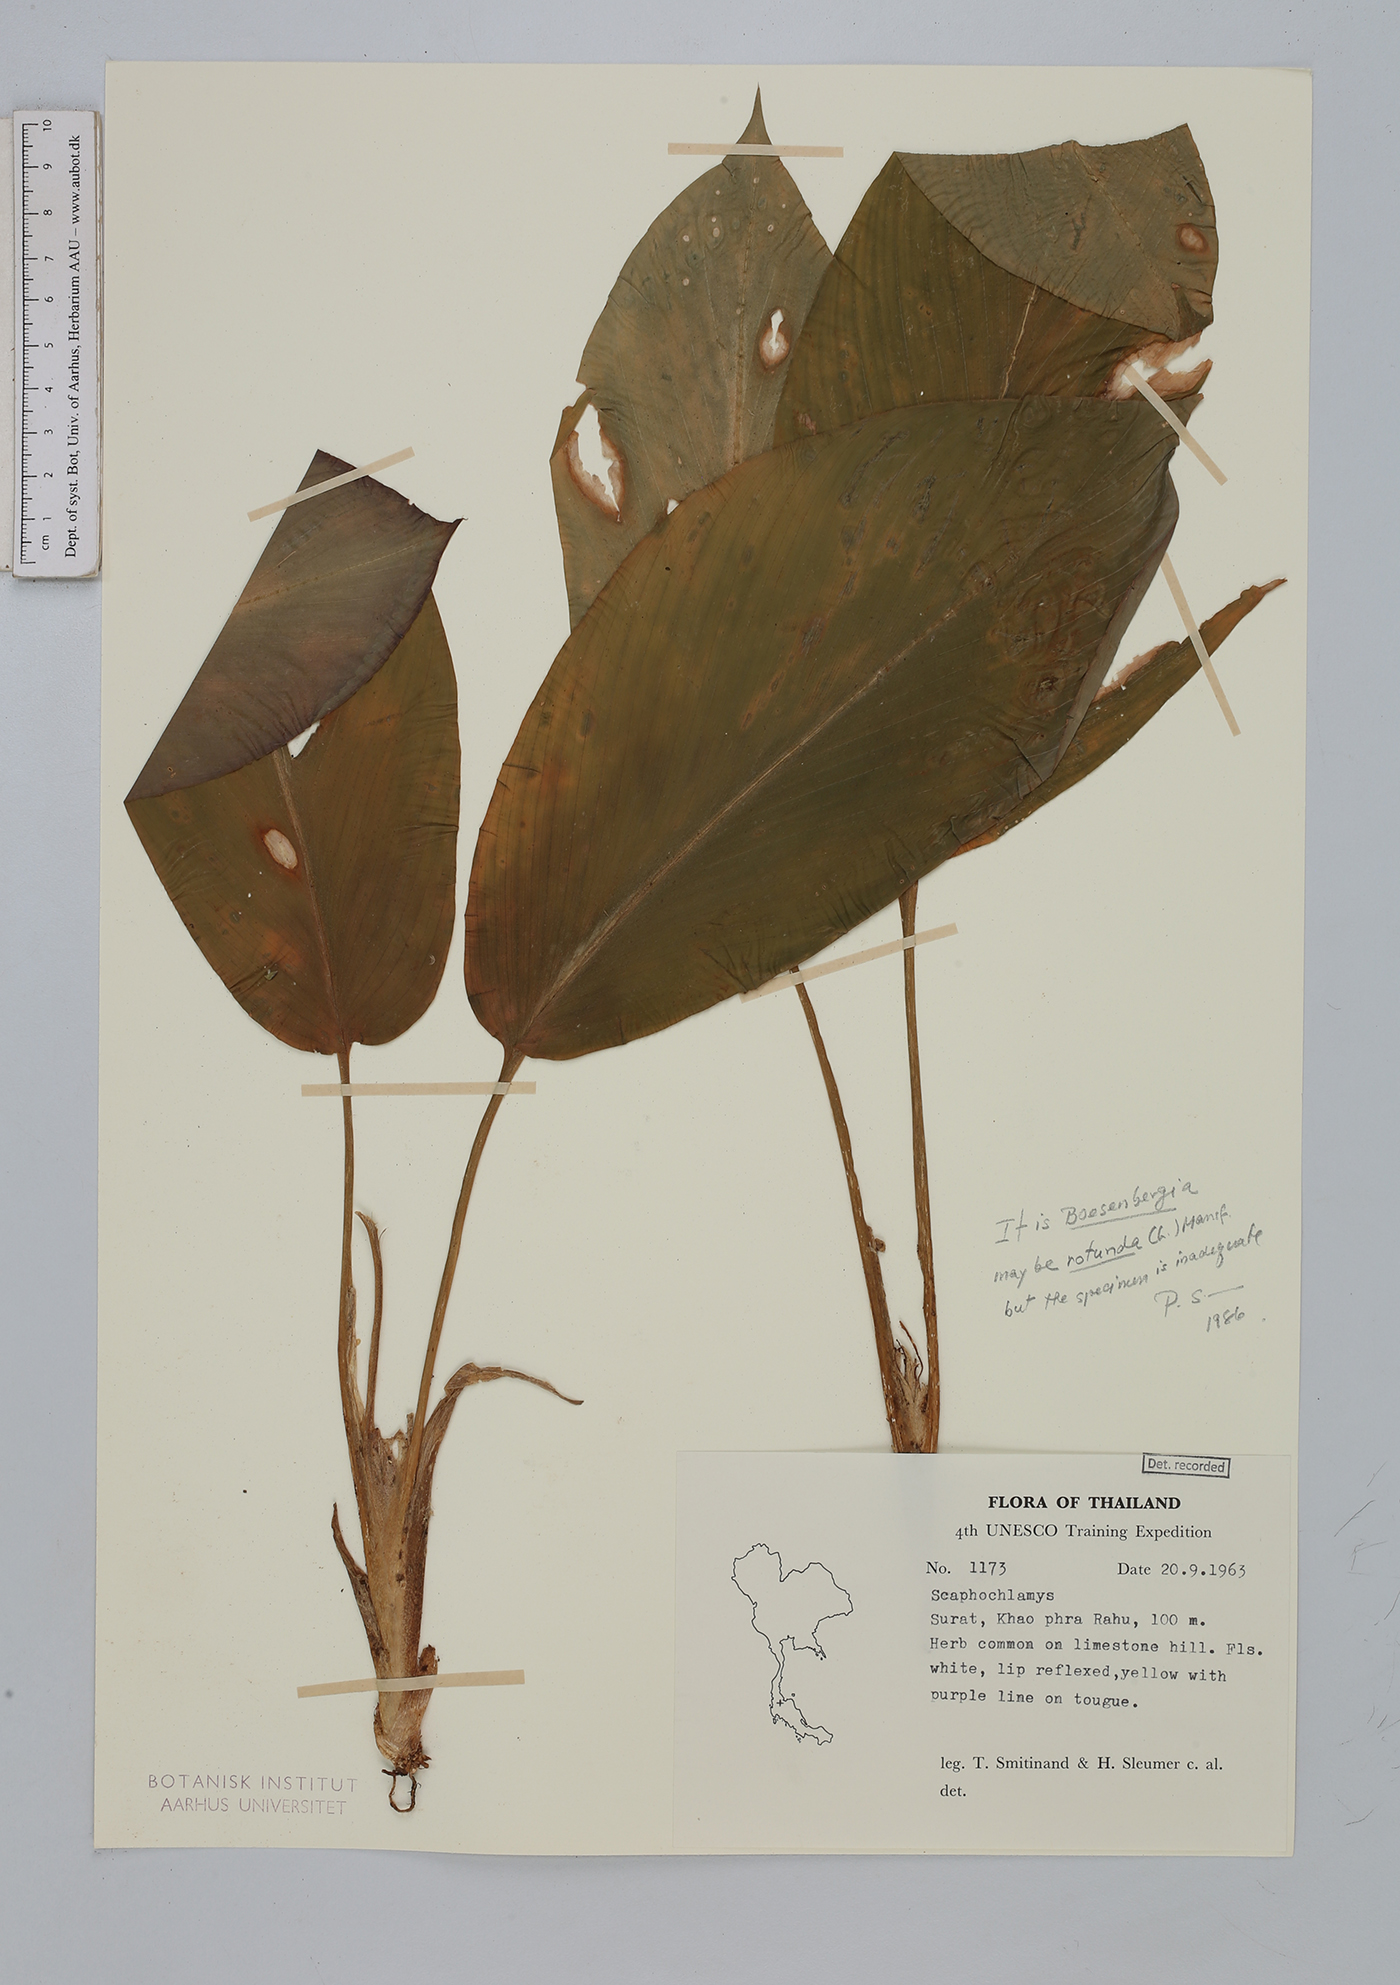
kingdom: Plantae
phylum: Tracheophyta
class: Liliopsida
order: Zingiberales
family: Zingiberaceae
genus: Boesenbergia
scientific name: Boesenbergia rotunda
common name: Chinese ginger
